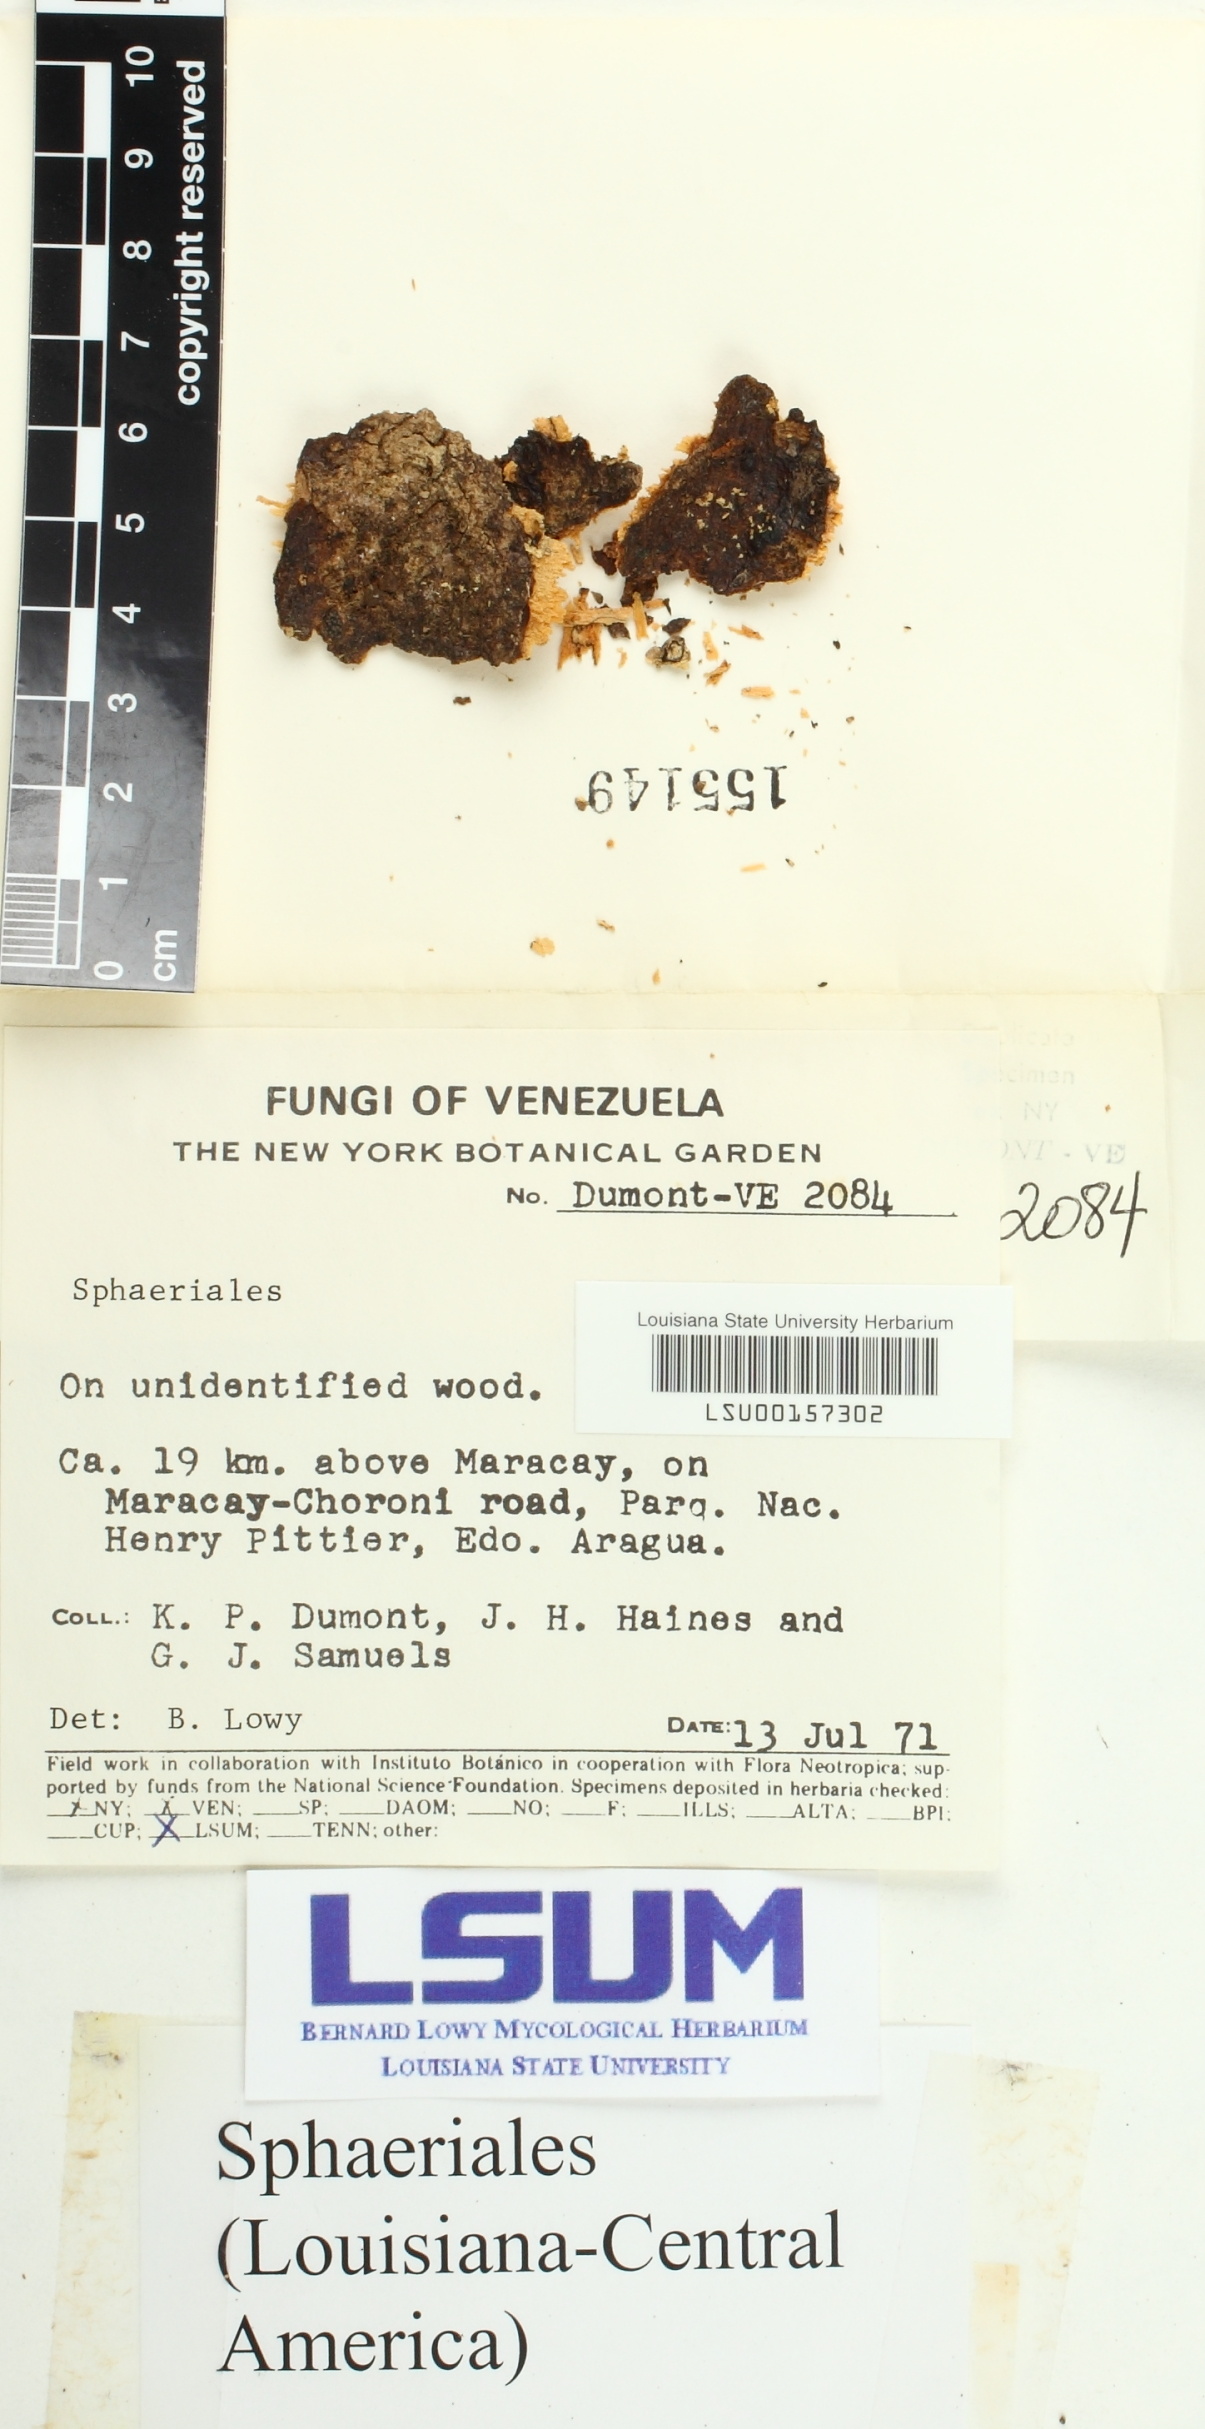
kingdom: Fungi
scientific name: Fungi
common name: Fungi
